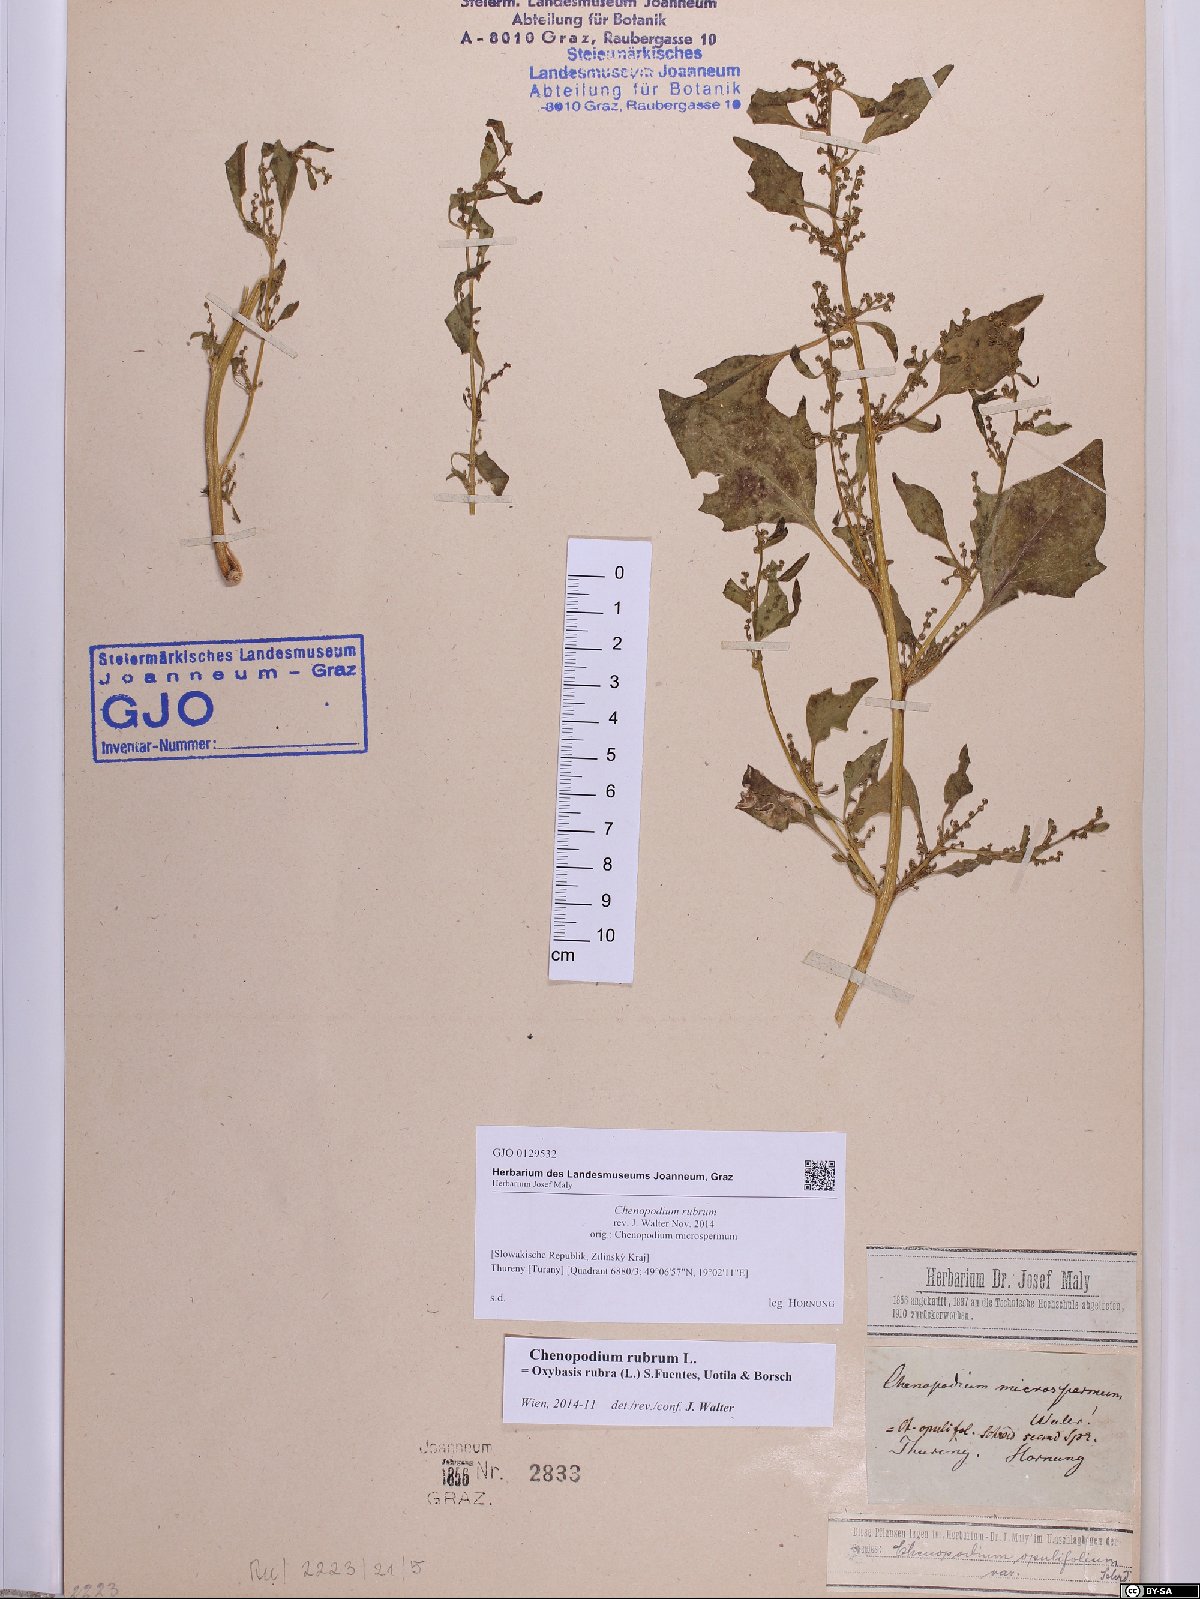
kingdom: Plantae
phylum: Tracheophyta
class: Magnoliopsida
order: Caryophyllales
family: Amaranthaceae
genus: Oxybasis
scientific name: Oxybasis rubra
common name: Red goosefoot
